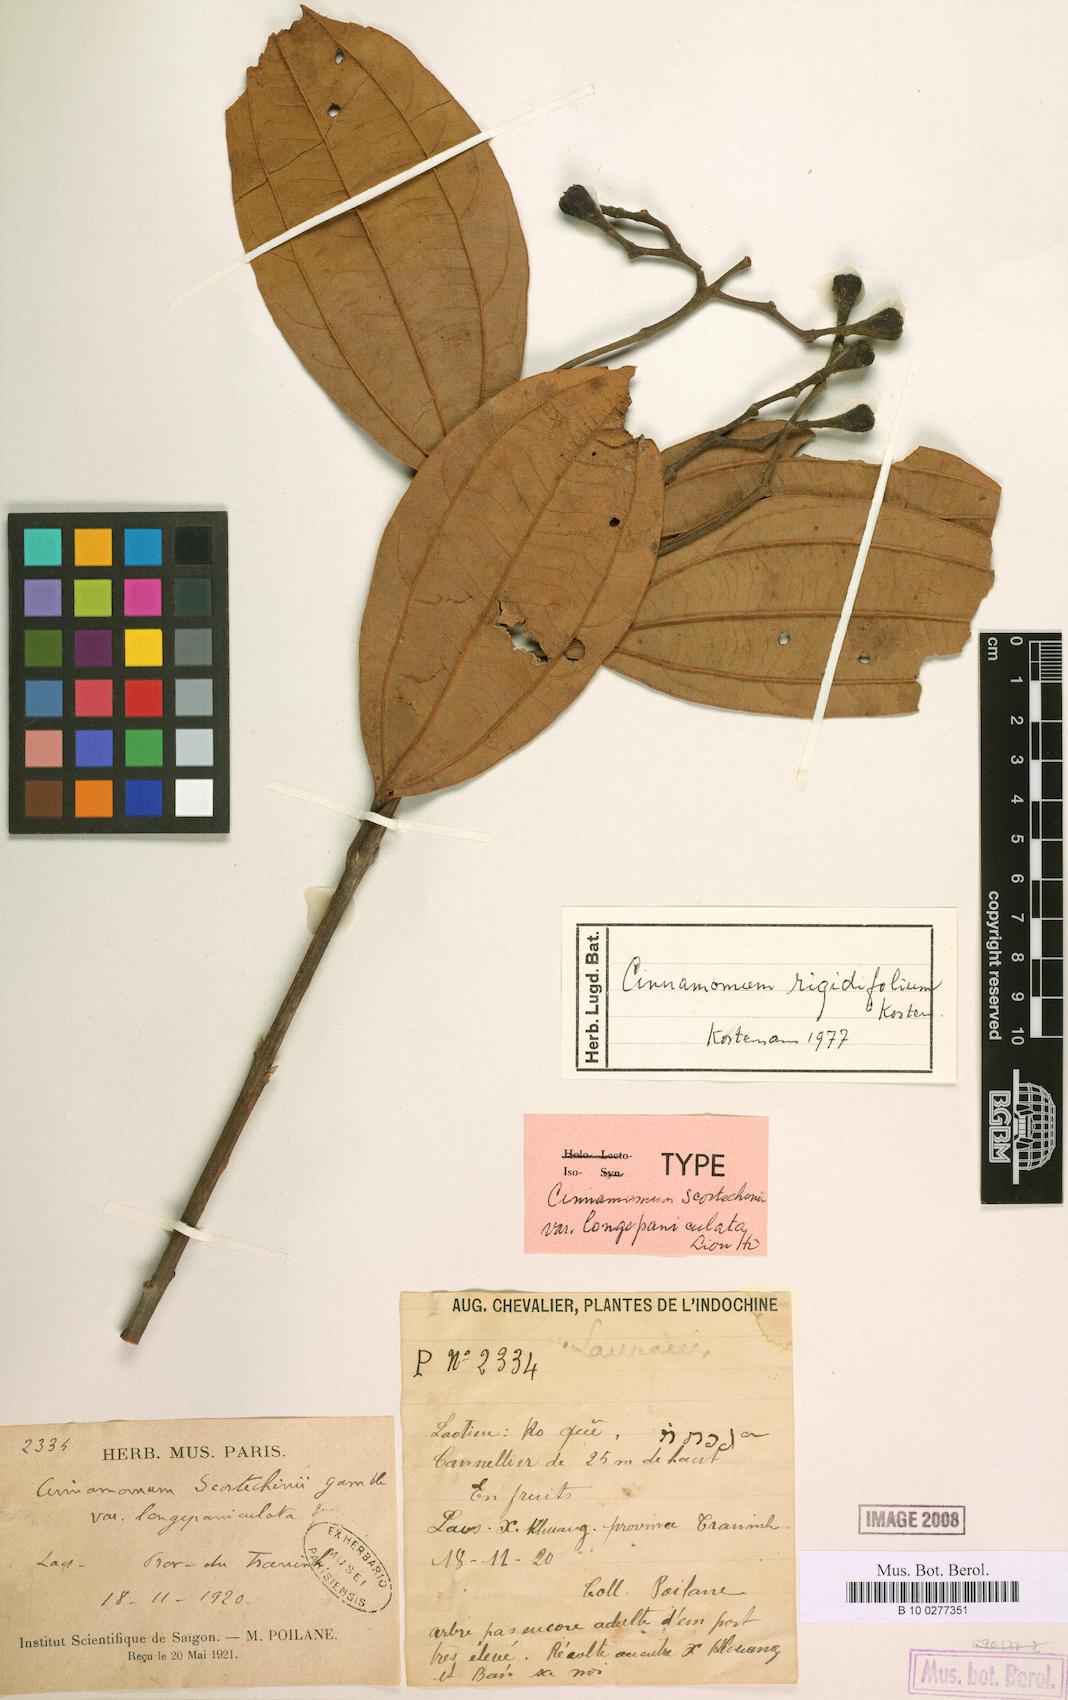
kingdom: Plantae
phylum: Tracheophyta
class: Magnoliopsida
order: Laurales
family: Lauraceae
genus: Cinnamomum
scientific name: Cinnamomum rigidifolium
